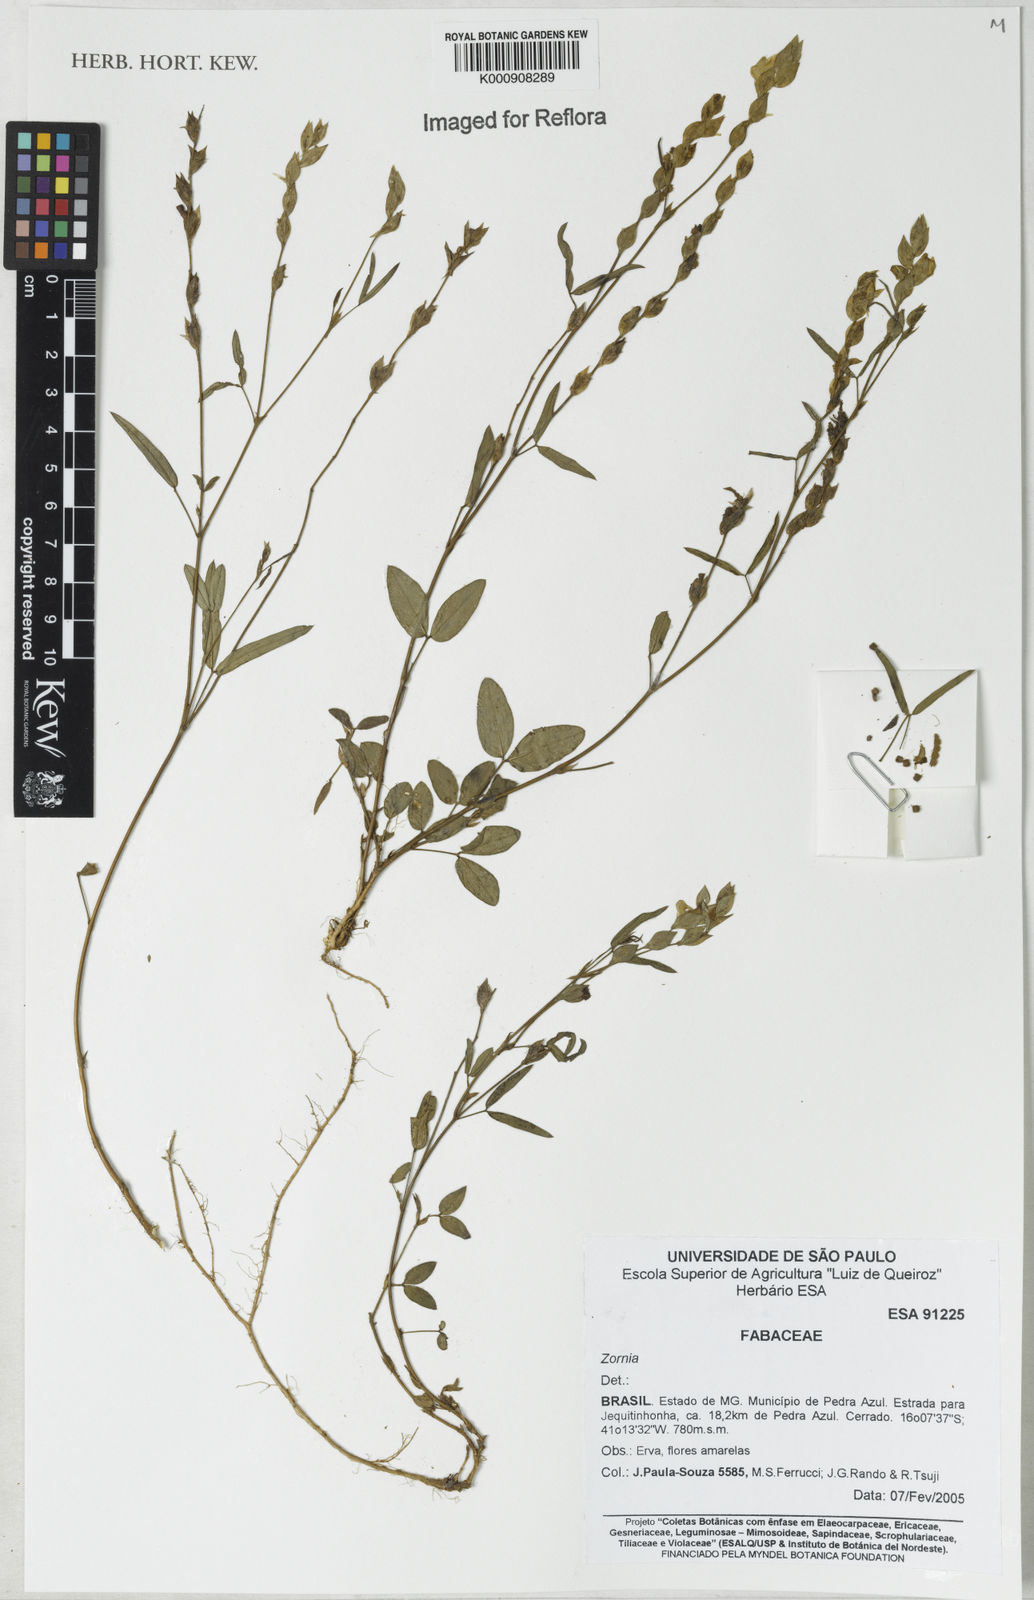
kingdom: Plantae
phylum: Tracheophyta
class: Magnoliopsida
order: Fabales
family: Fabaceae
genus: Zornia
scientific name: Zornia
